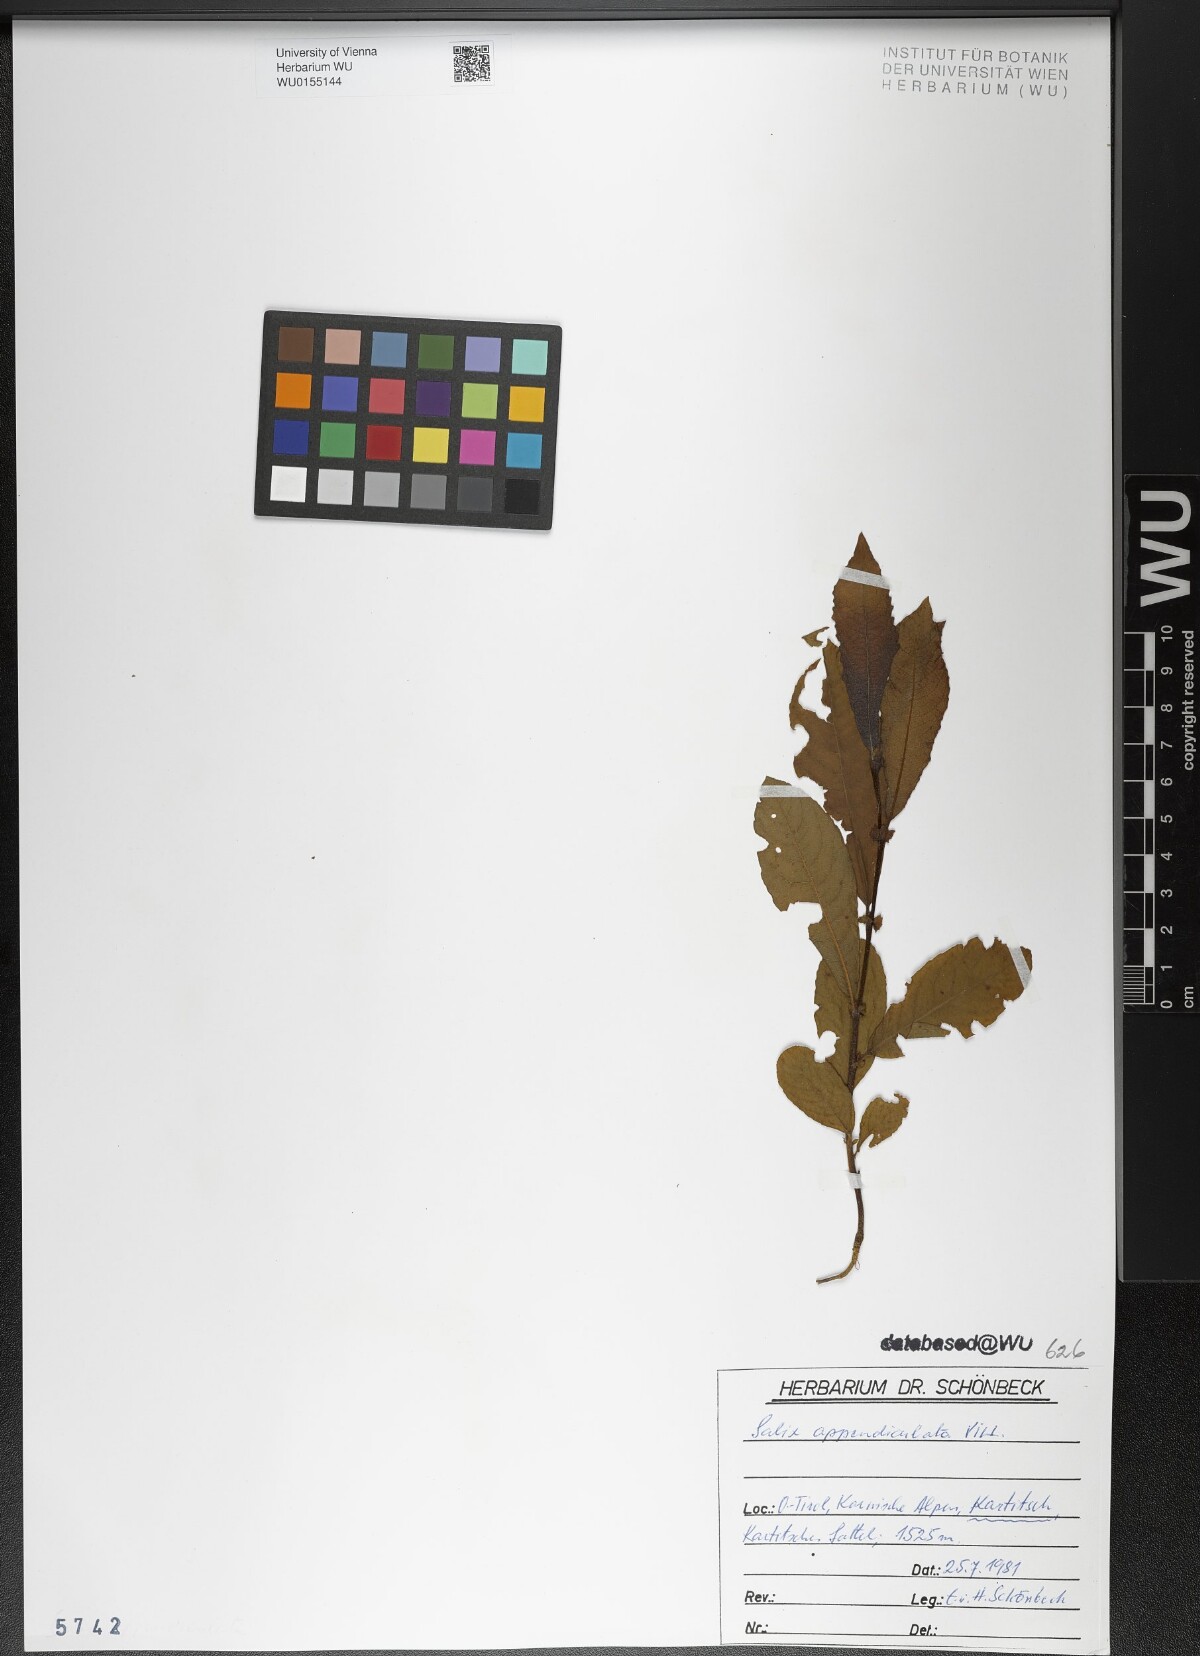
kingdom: Plantae
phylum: Tracheophyta
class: Magnoliopsida
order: Malpighiales
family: Salicaceae
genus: Salix
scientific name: Salix appendiculata
